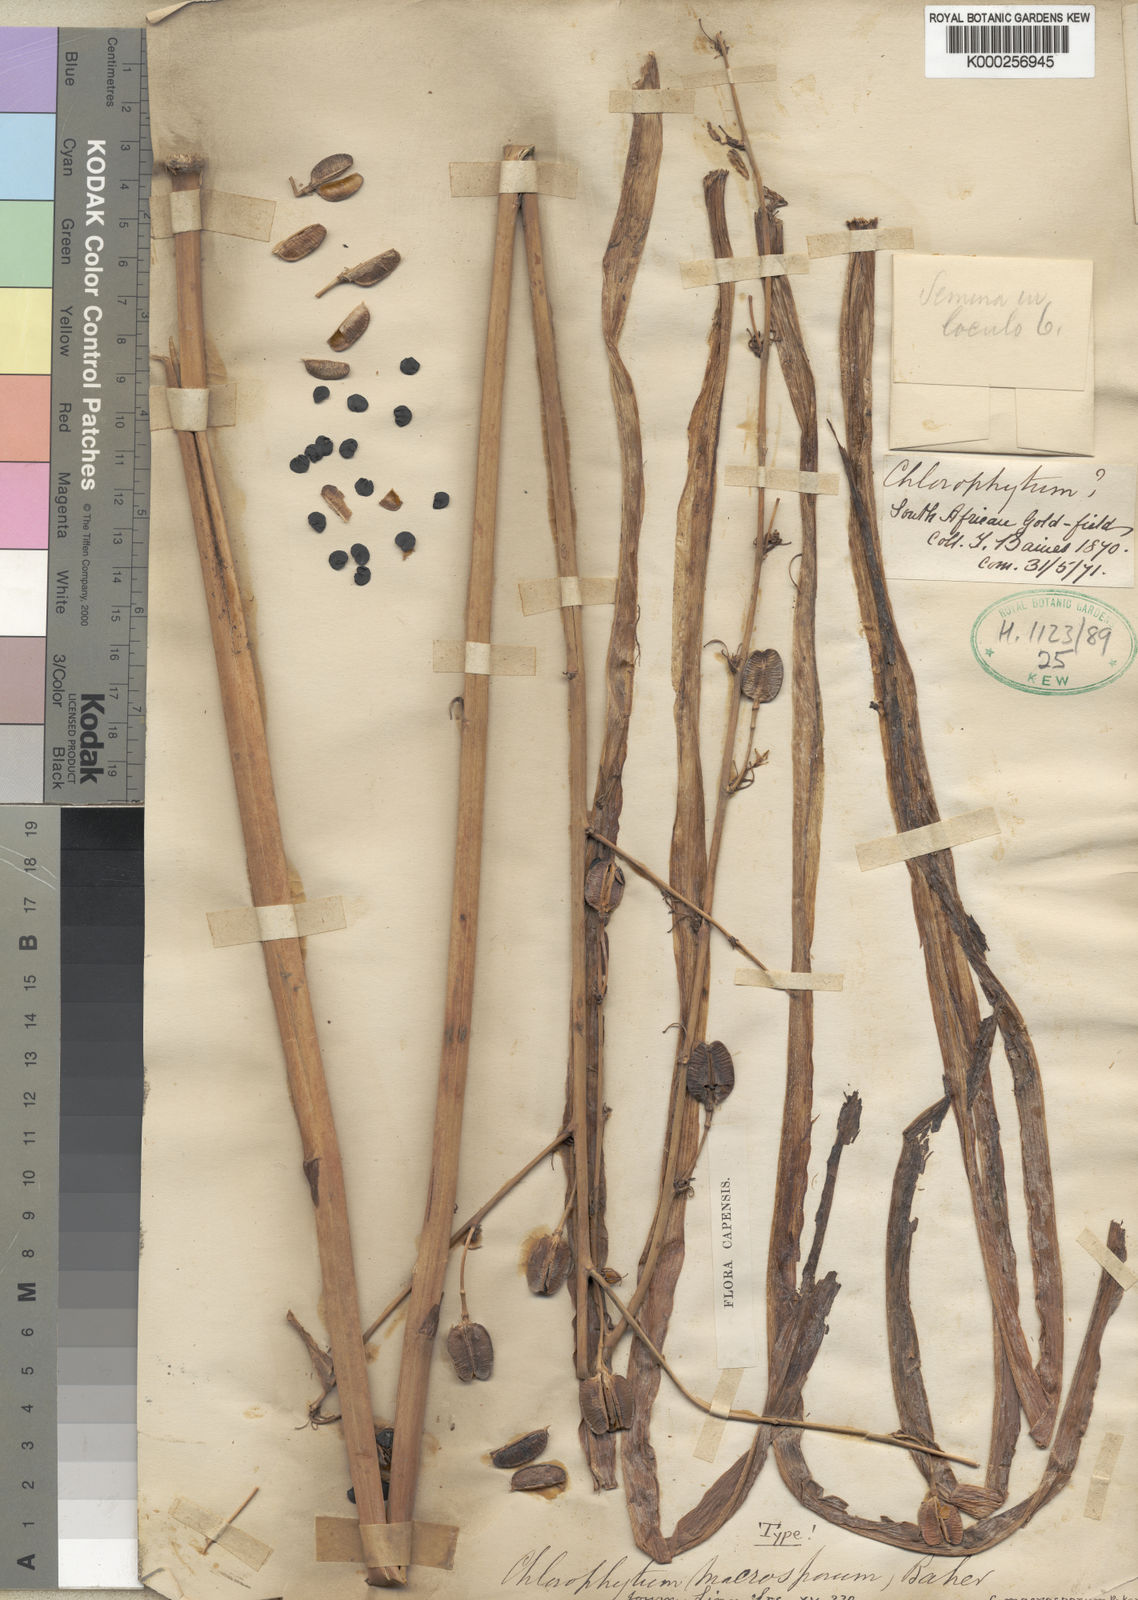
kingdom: Plantae
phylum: Tracheophyta
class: Liliopsida
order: Asparagales
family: Asparagaceae
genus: Chlorophytum
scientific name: Chlorophytum macrosporum
